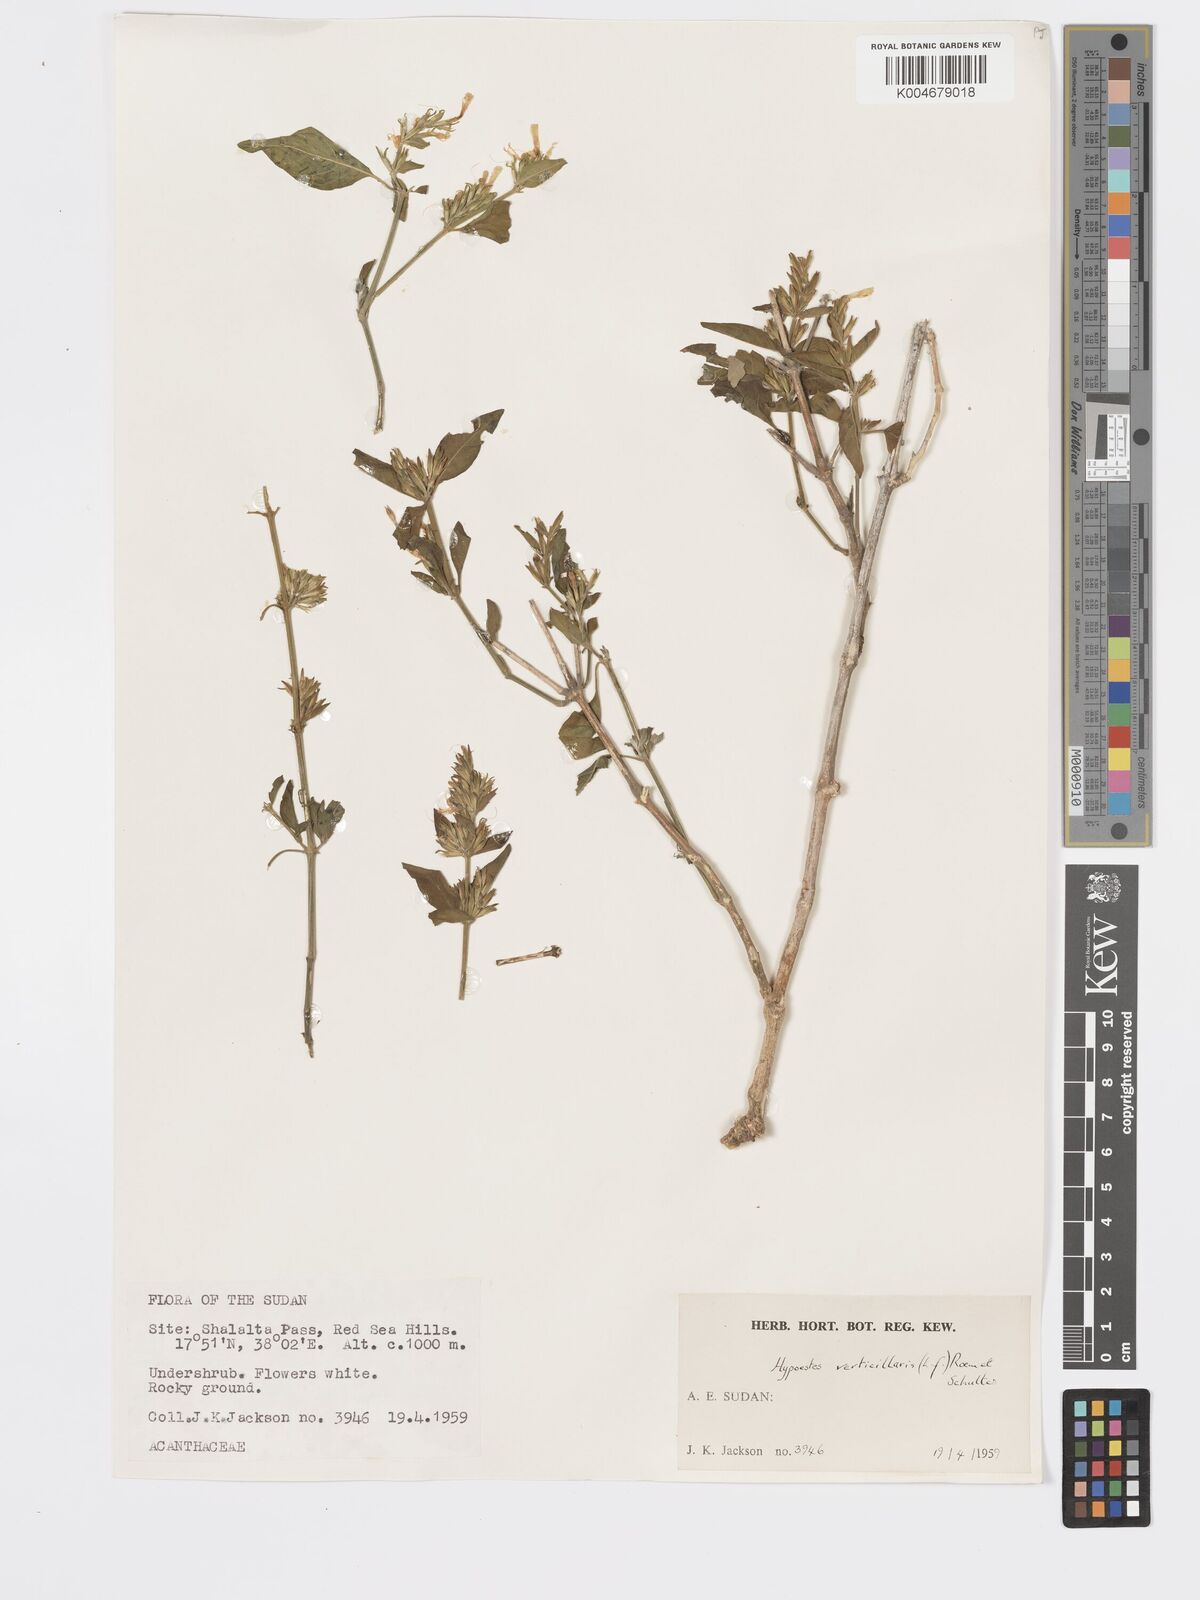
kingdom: Plantae
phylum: Tracheophyta
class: Magnoliopsida
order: Lamiales
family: Acanthaceae
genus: Hypoestes
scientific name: Hypoestes forskaolii
